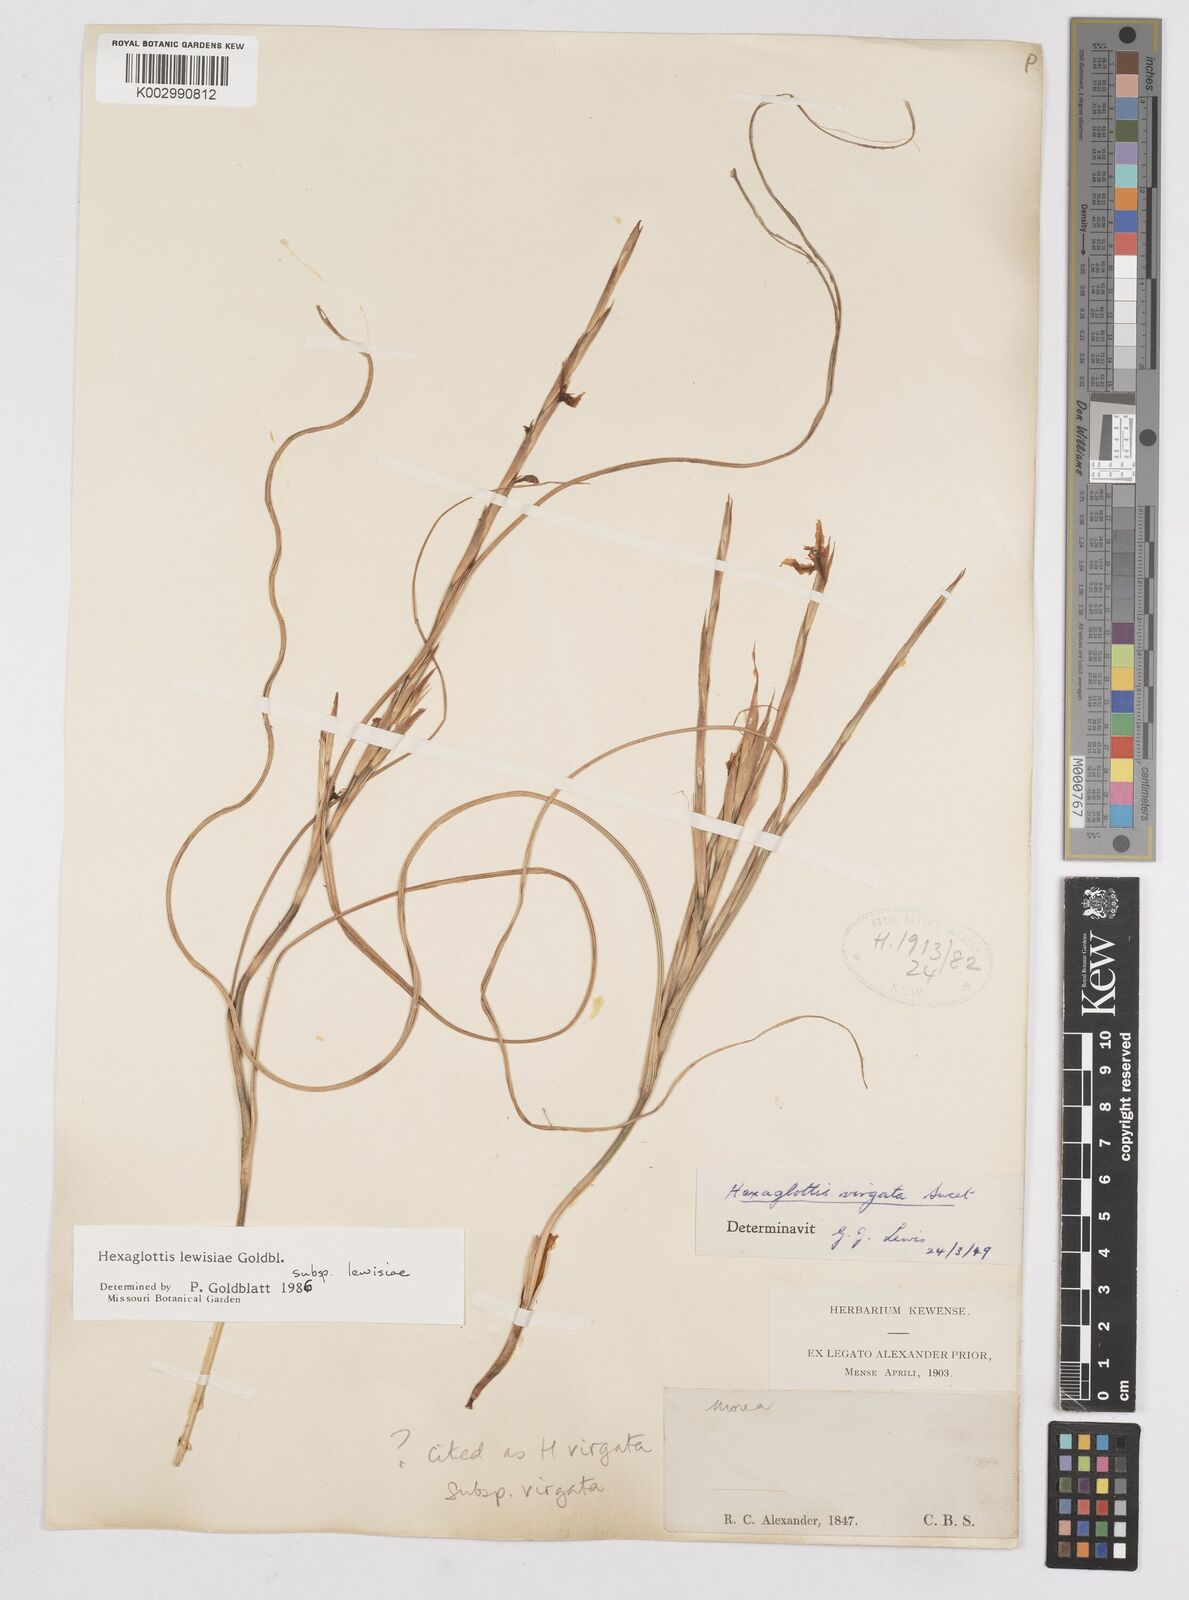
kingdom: Plantae
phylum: Tracheophyta
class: Liliopsida
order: Asparagales
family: Iridaceae
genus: Moraea
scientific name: Moraea lewisiae
